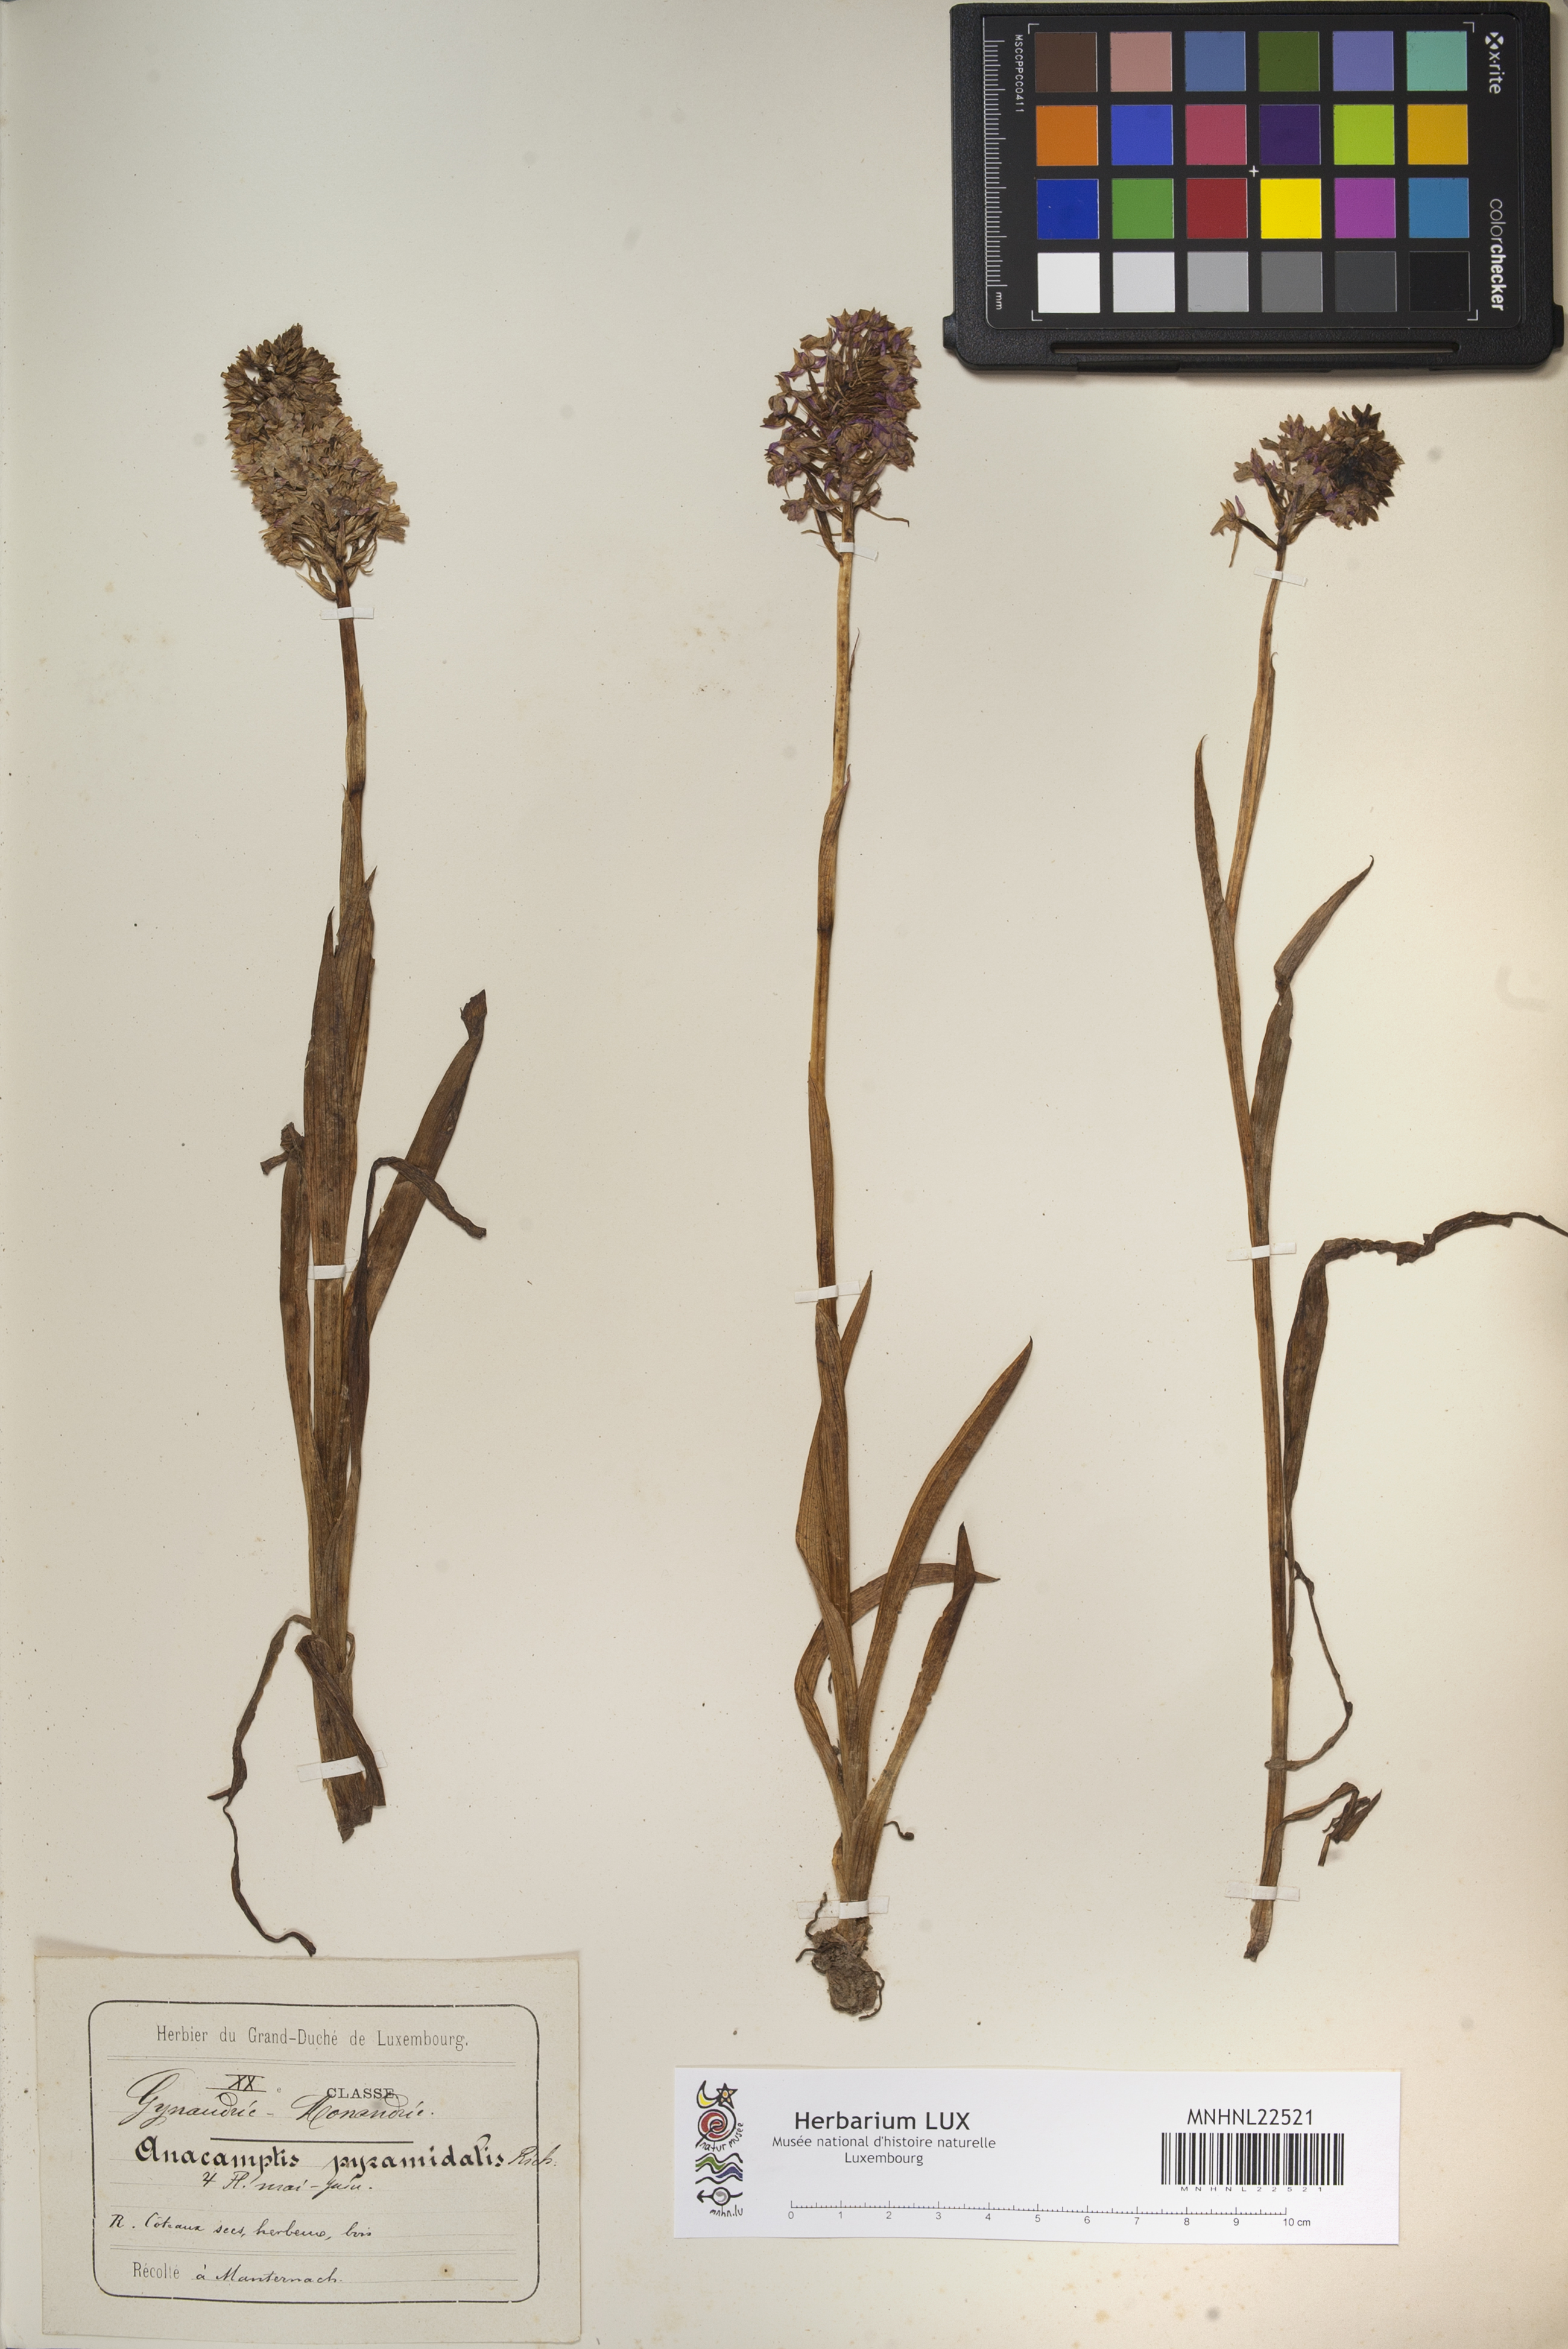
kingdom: Plantae
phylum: Tracheophyta
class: Liliopsida
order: Asparagales
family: Orchidaceae
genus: Anacamptis
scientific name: Anacamptis pyramidalis
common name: Pyramidal orchid
